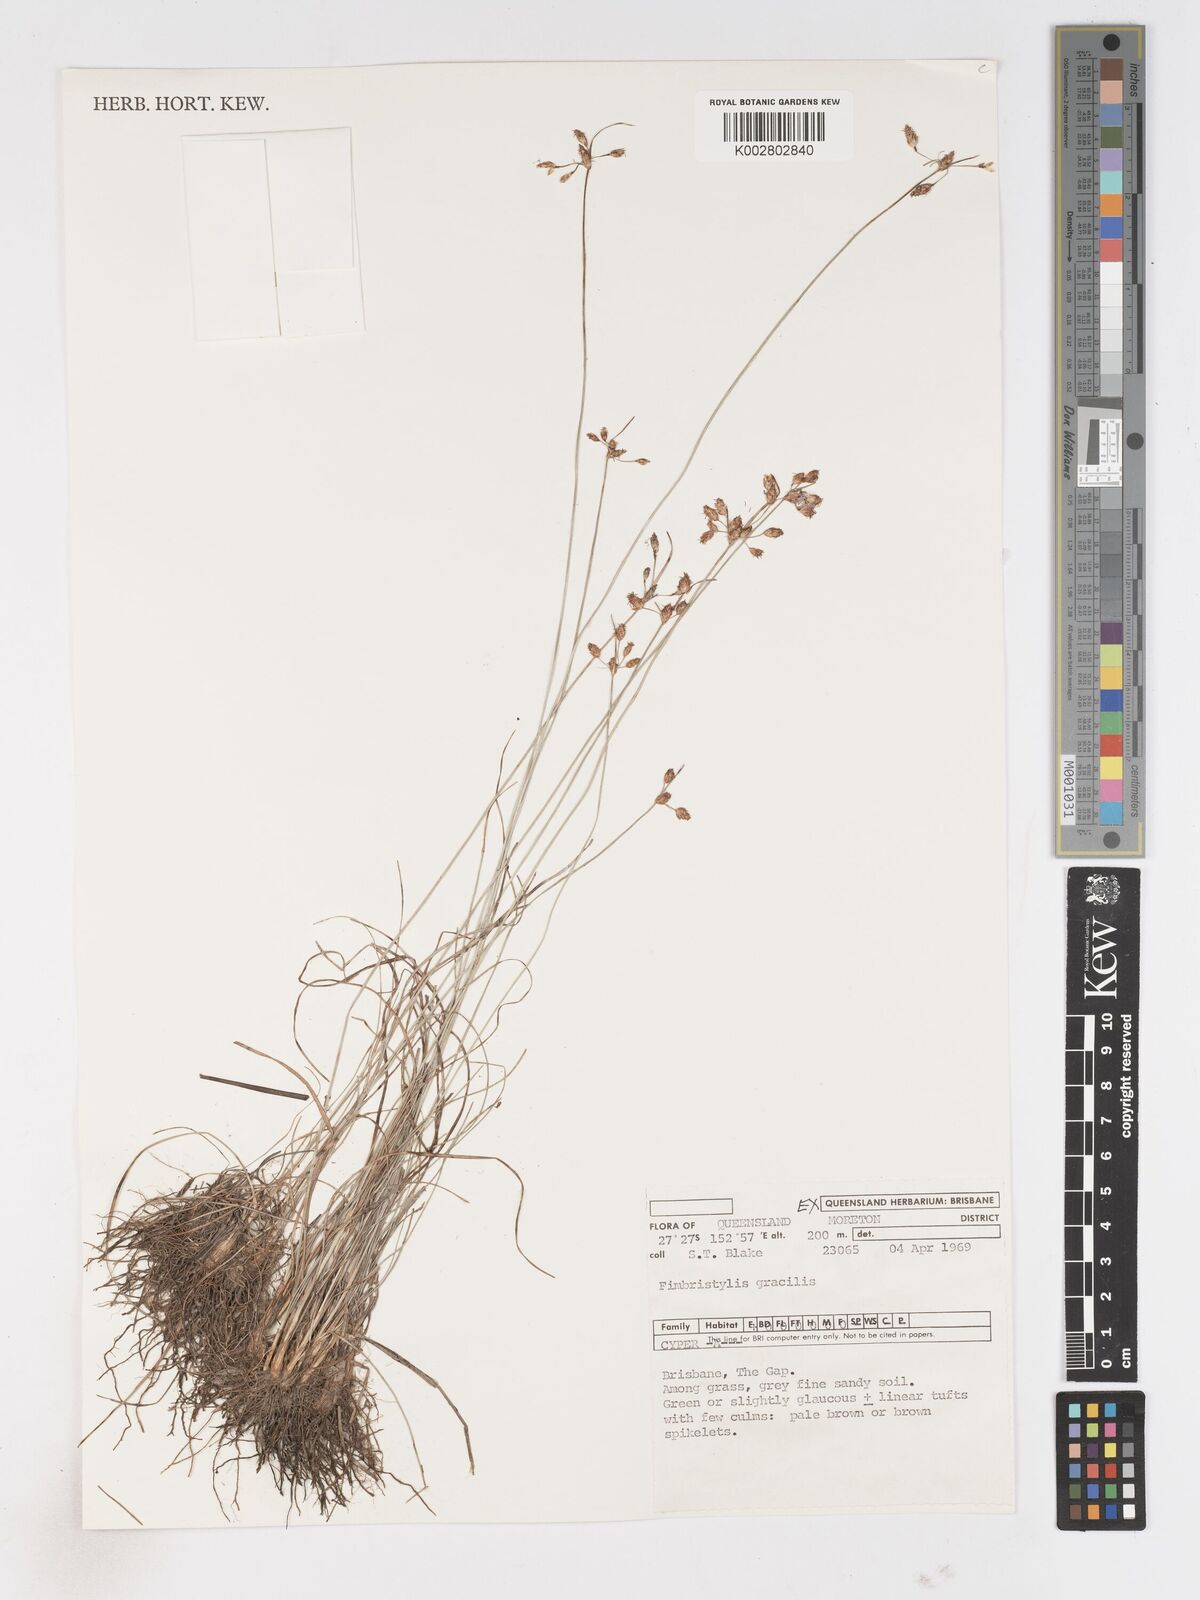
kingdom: Plantae
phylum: Tracheophyta
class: Liliopsida
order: Poales
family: Cyperaceae
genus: Fimbristylis
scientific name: Fimbristylis dichotoma
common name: Forked fimbry
